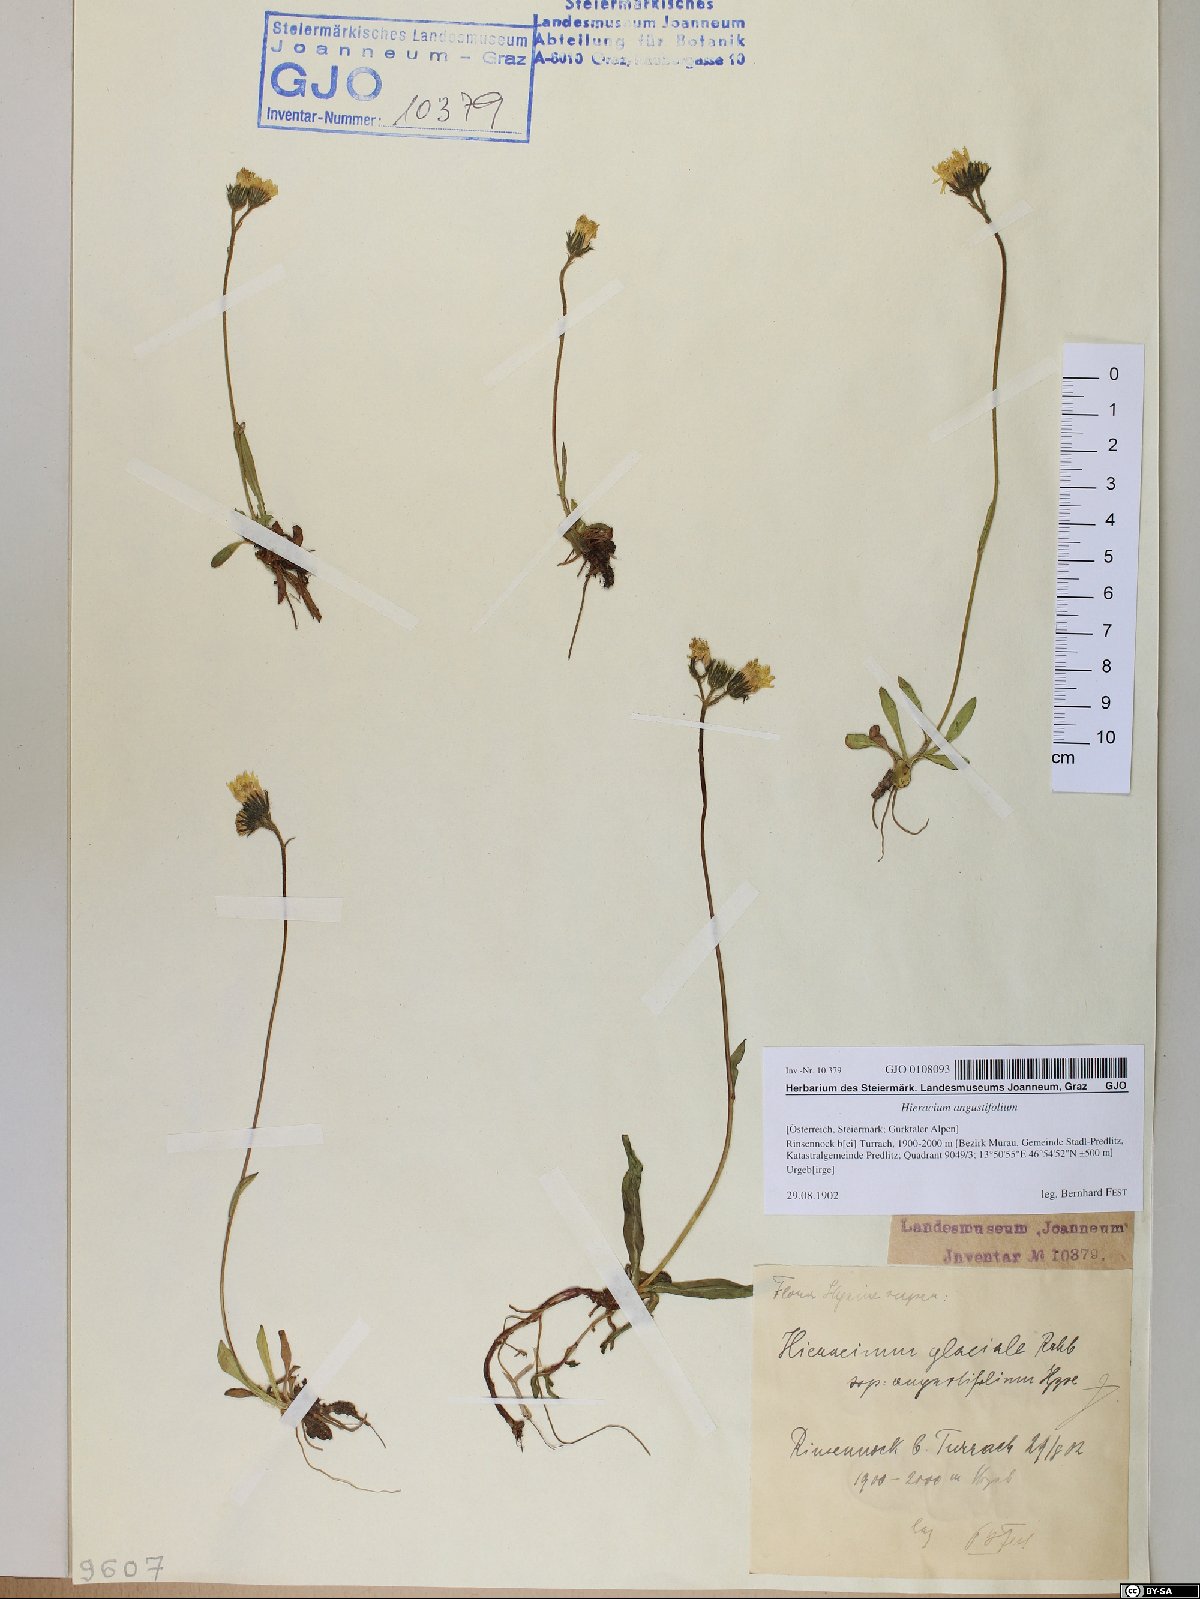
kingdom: Plantae
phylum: Tracheophyta
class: Magnoliopsida
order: Asterales
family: Asteraceae
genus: Pilosella
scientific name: Pilosella glacialis
